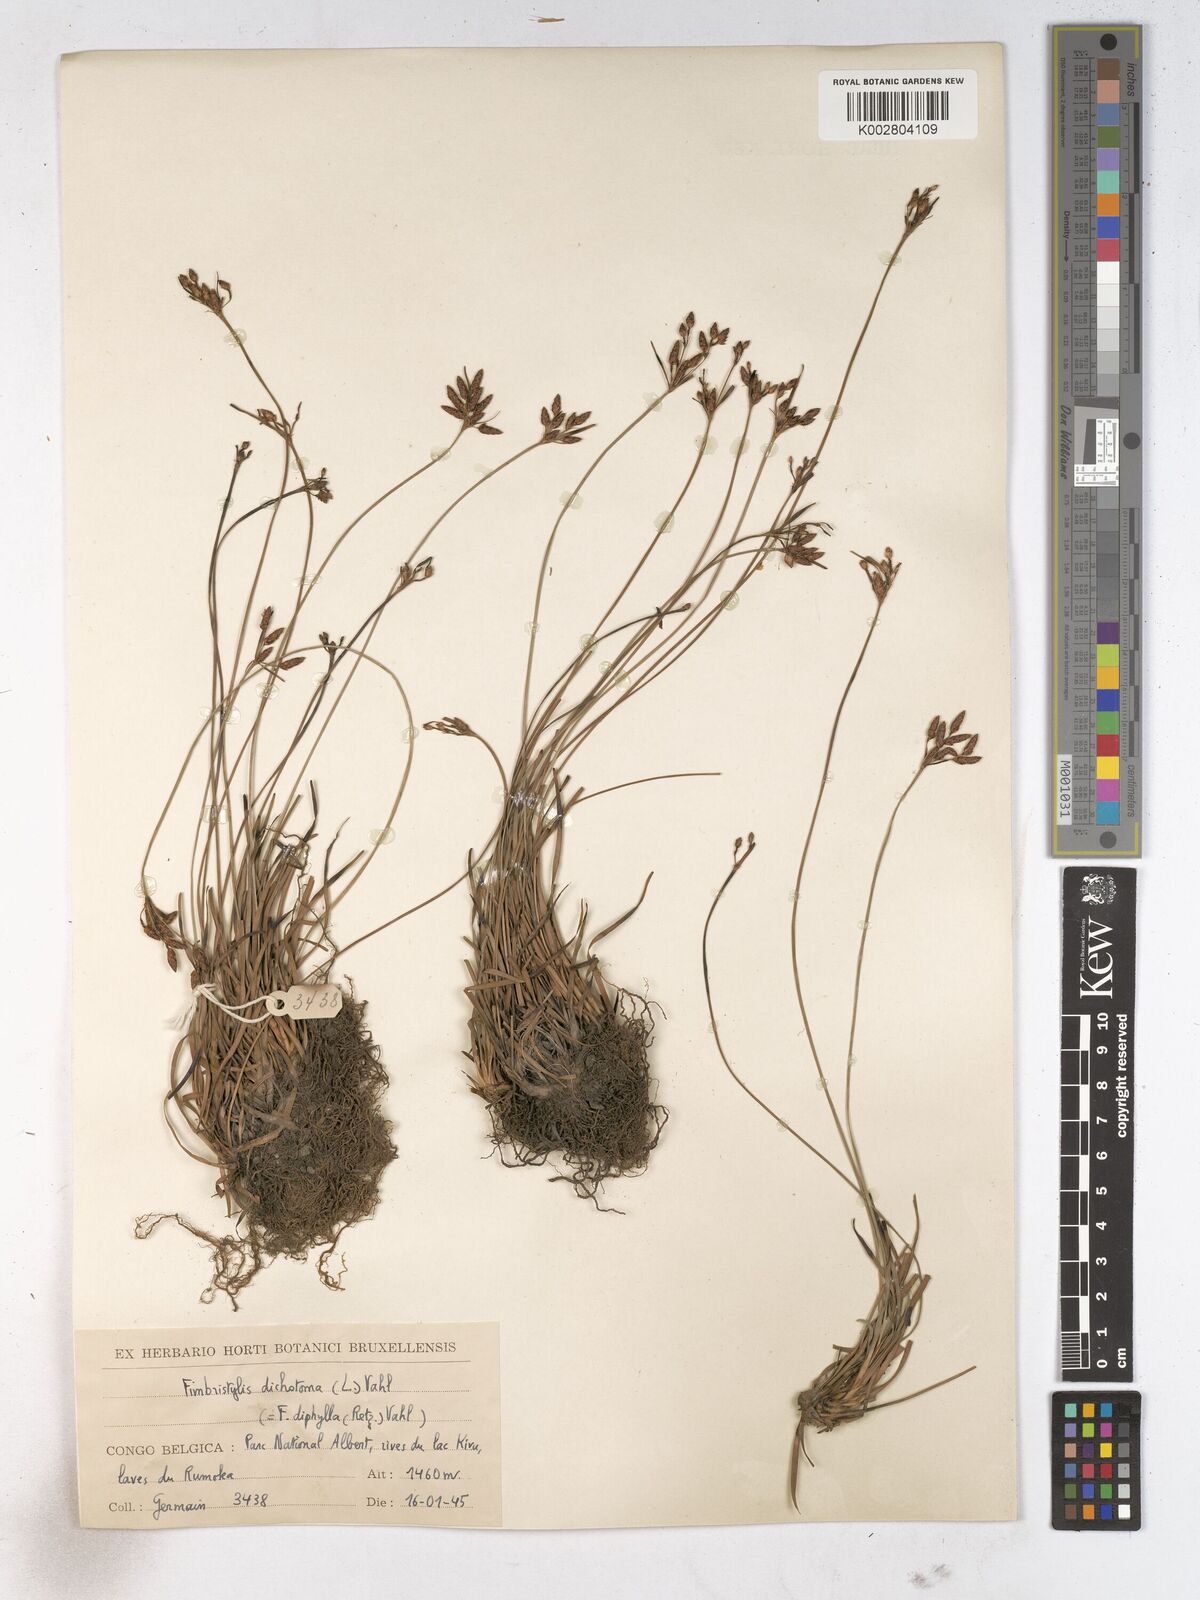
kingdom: Plantae
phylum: Tracheophyta
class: Liliopsida
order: Poales
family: Cyperaceae
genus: Fimbristylis
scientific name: Fimbristylis dichotoma
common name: Forked fimbry
